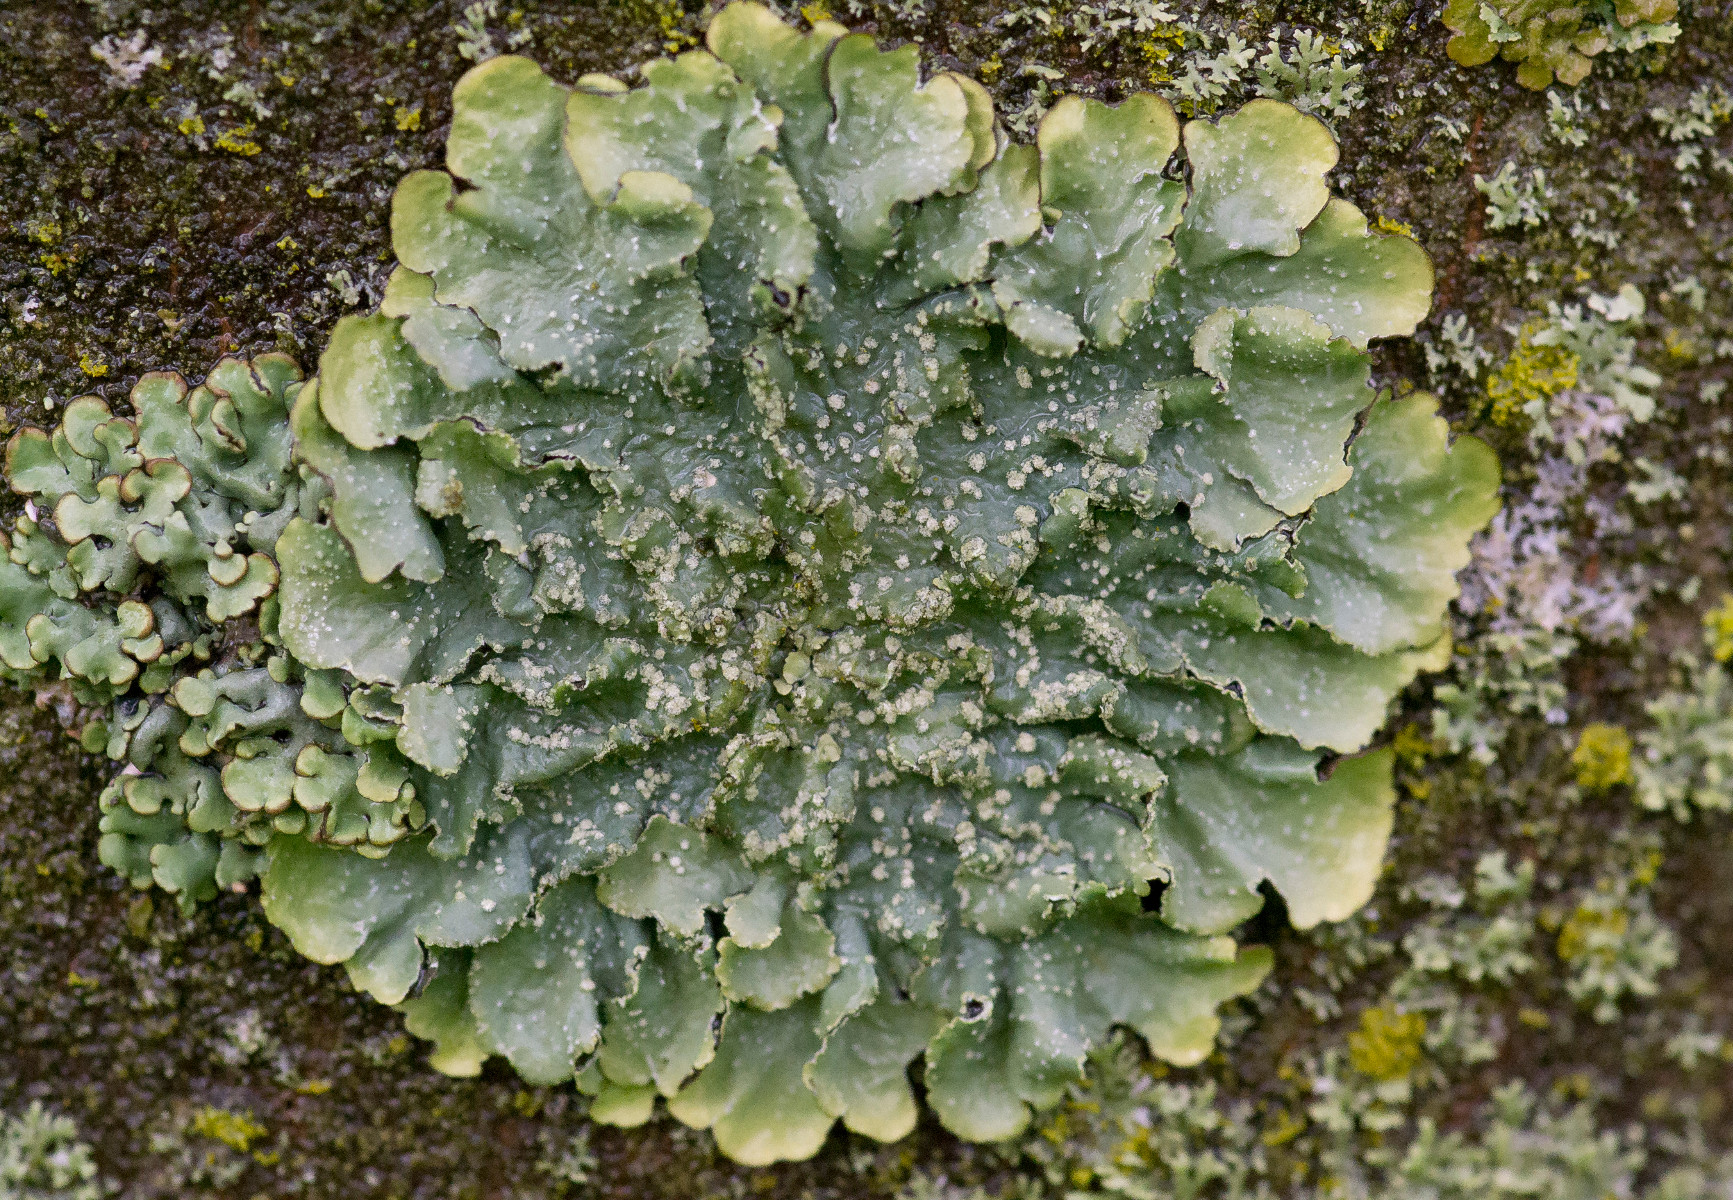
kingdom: Fungi
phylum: Ascomycota
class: Lecanoromycetes
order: Lecanorales
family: Parmeliaceae
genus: Punctelia
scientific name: Punctelia subrudecta
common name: punkt-skållav
